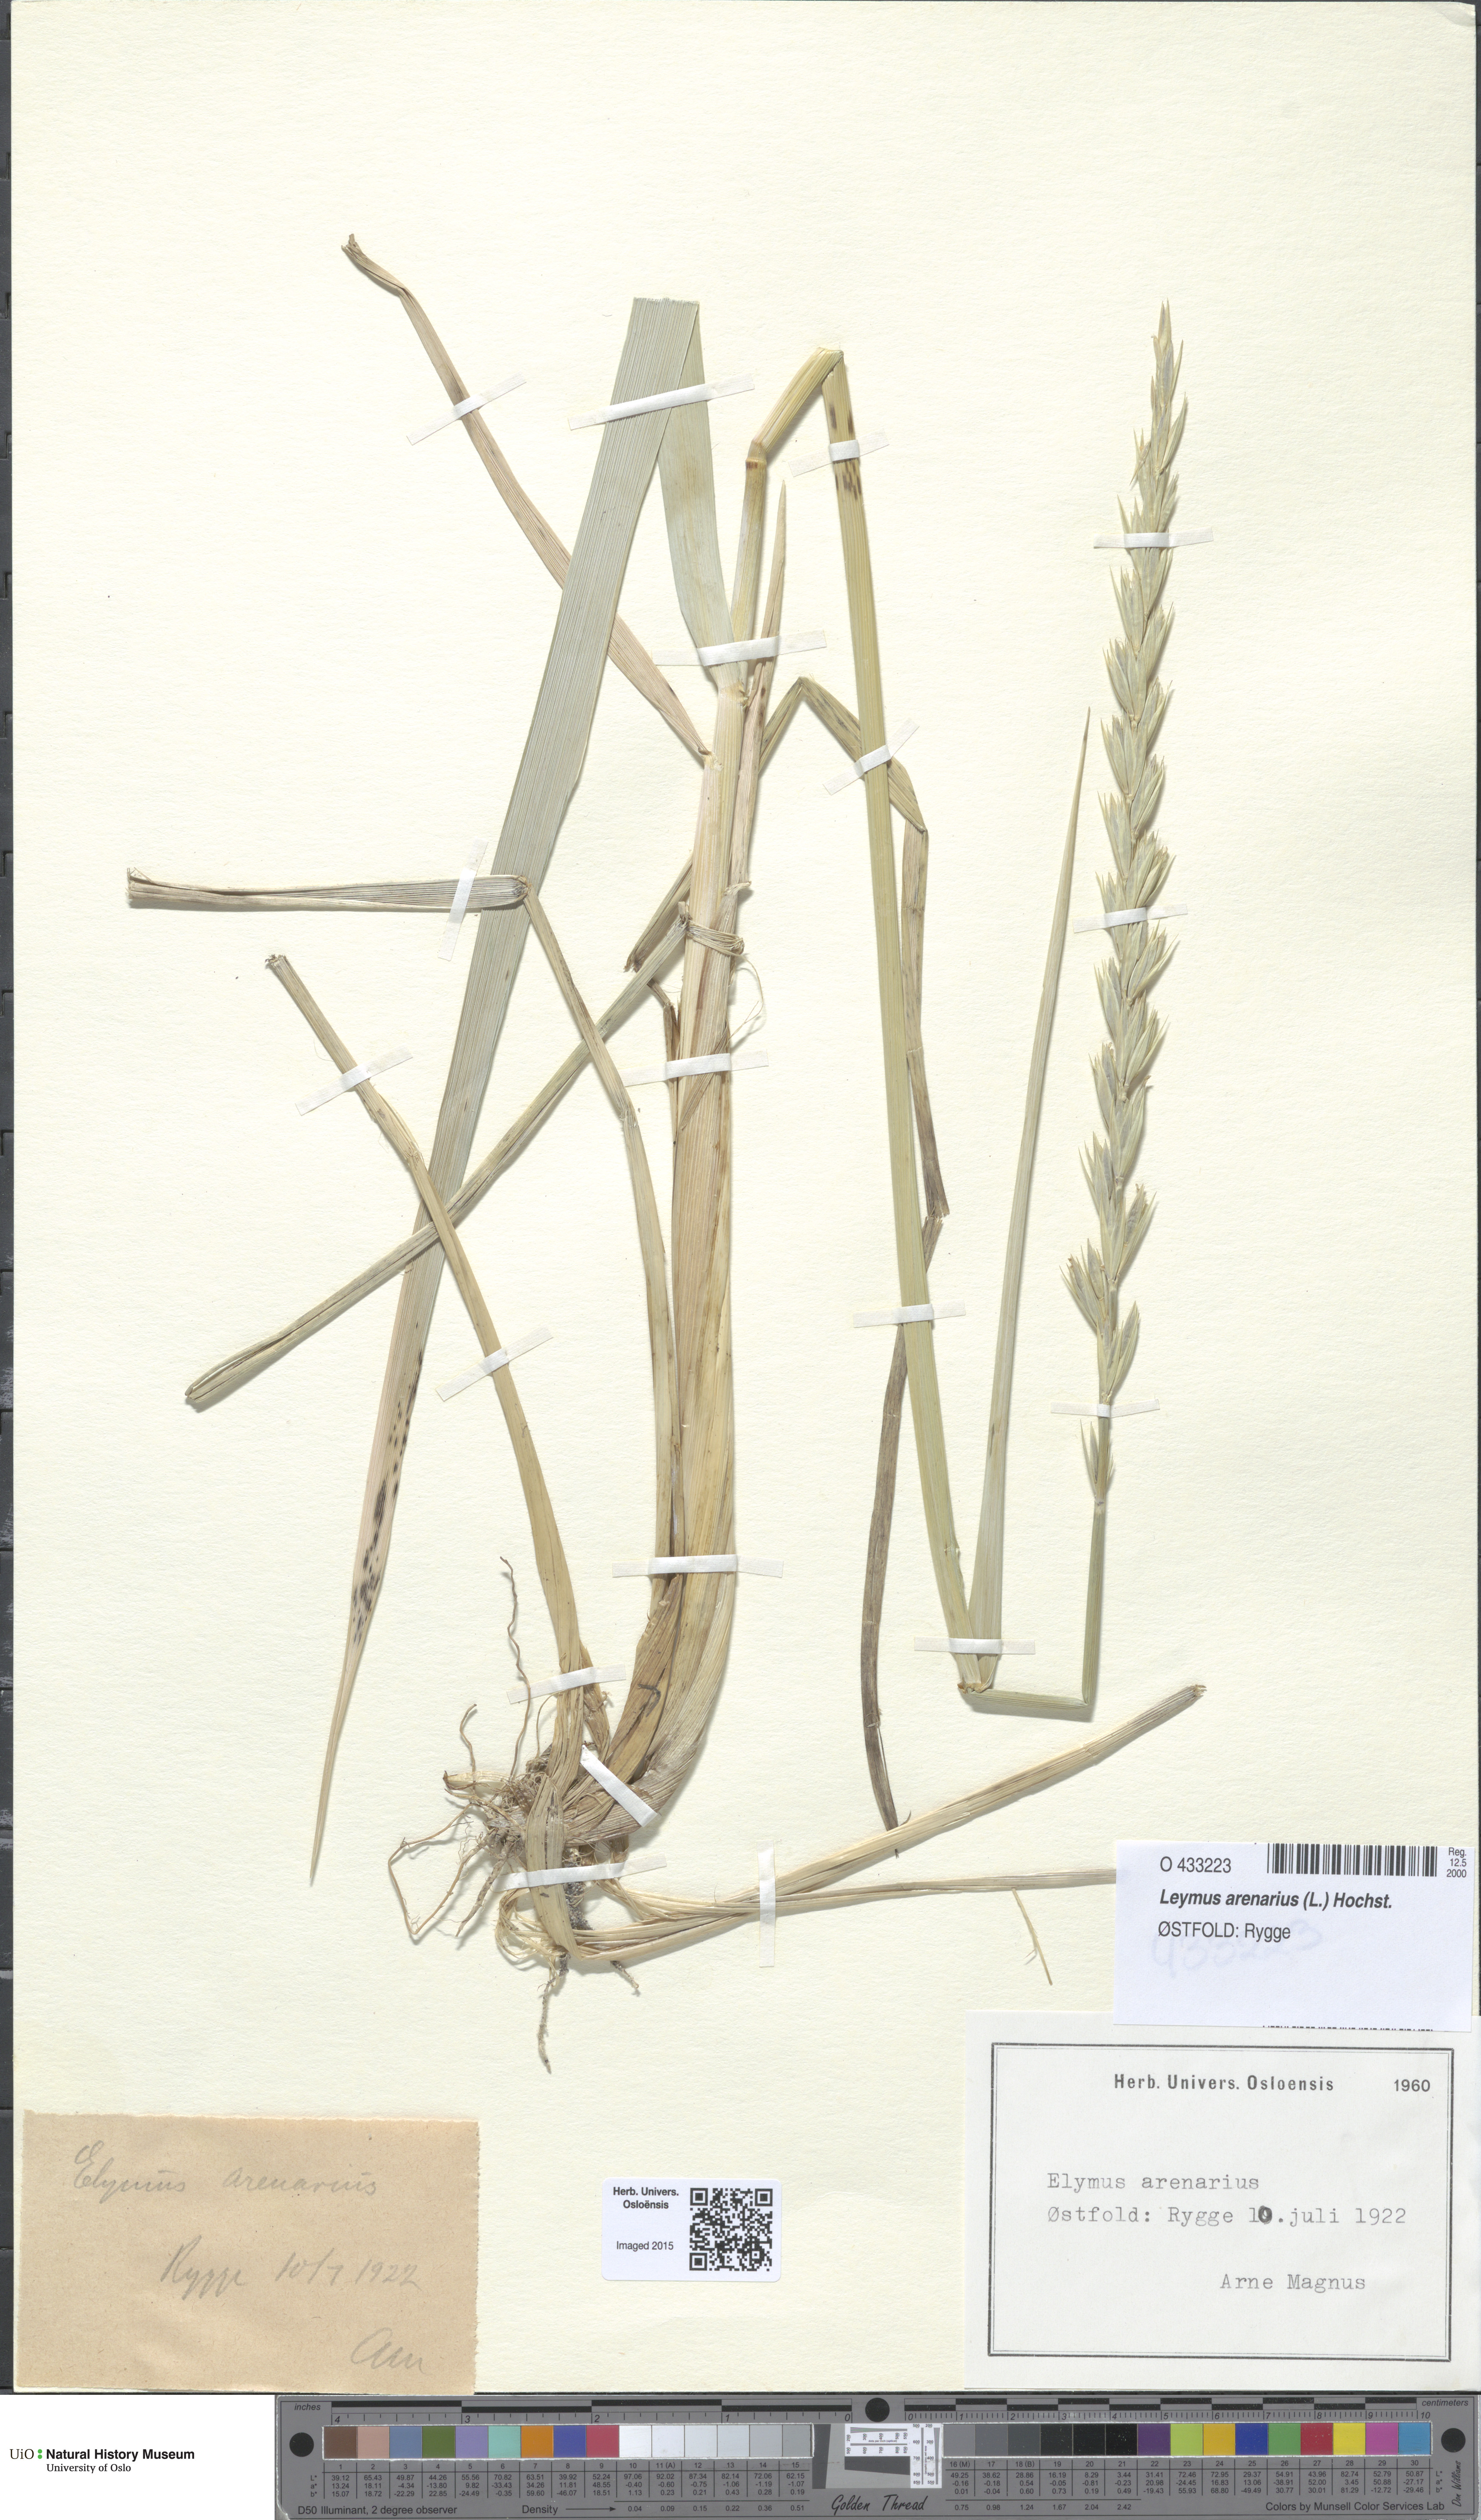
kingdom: Plantae
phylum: Tracheophyta
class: Liliopsida
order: Poales
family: Poaceae
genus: Leymus
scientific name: Leymus arenarius
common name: Lyme-grass
